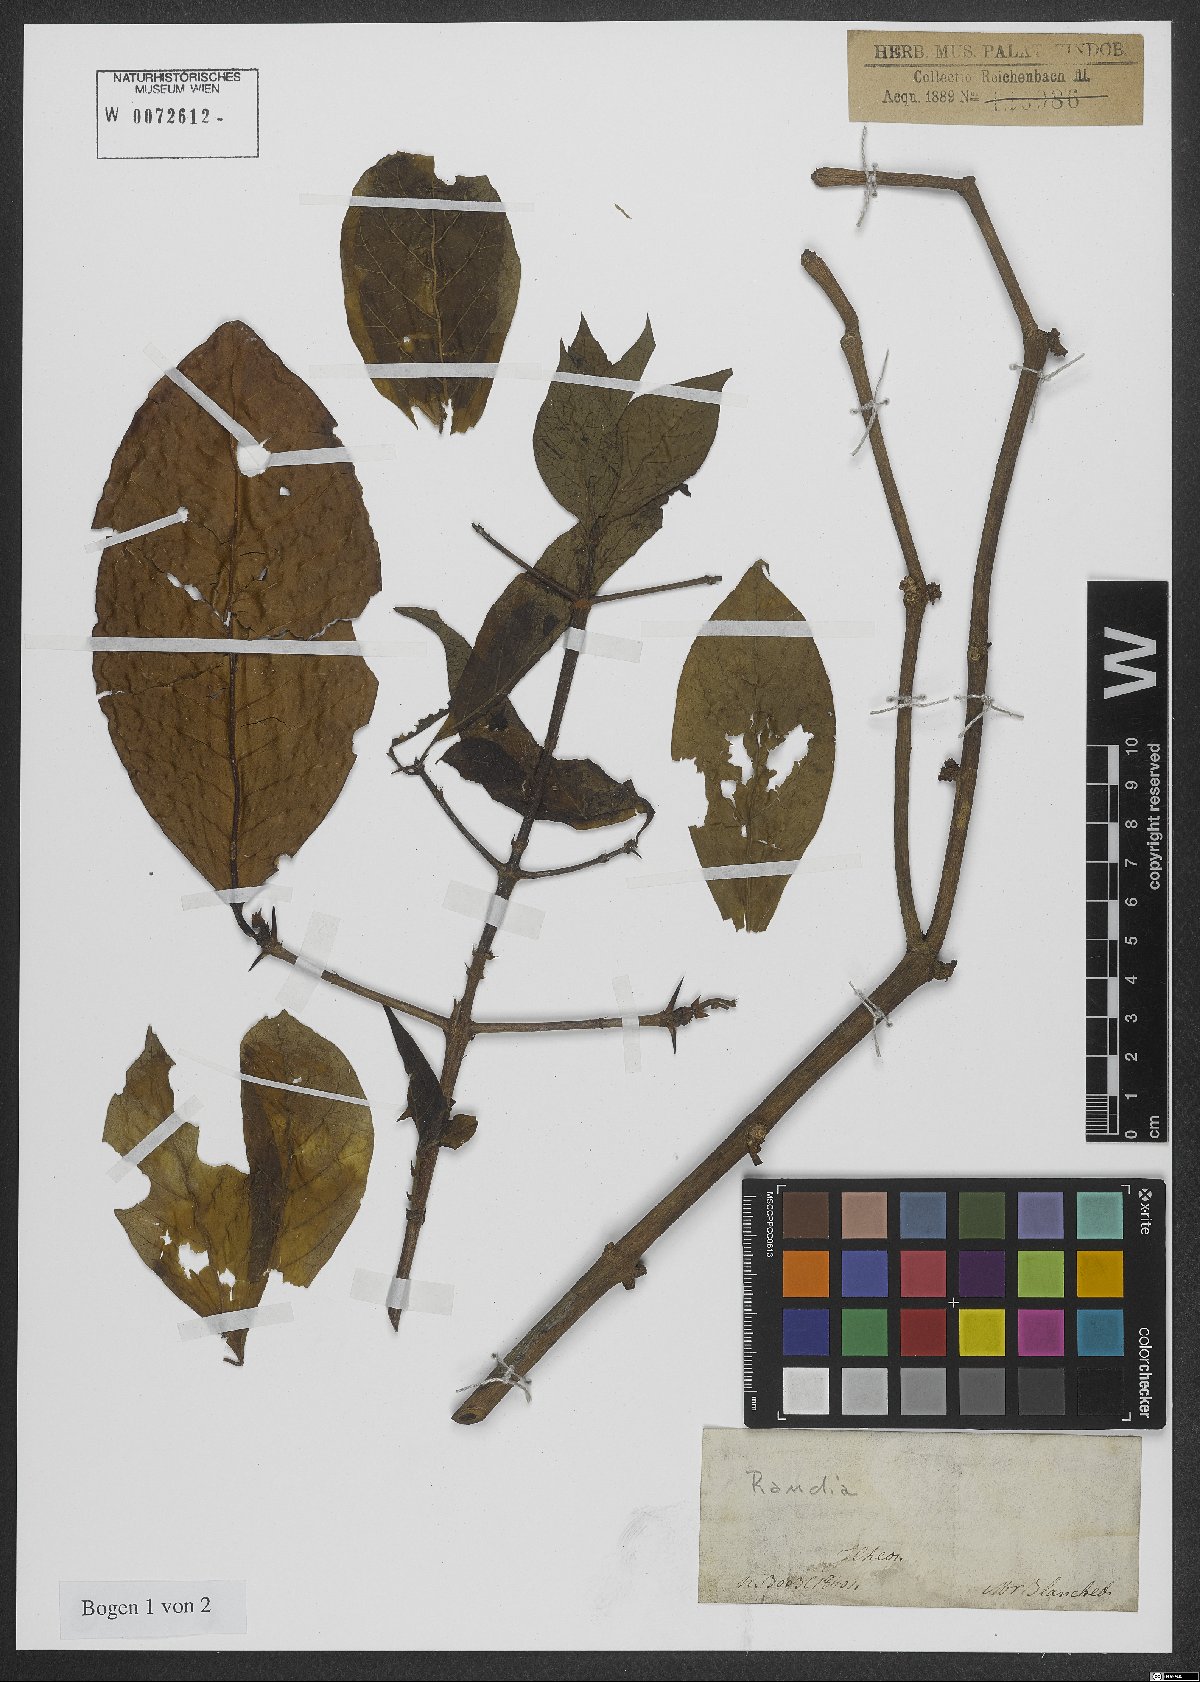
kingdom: Plantae
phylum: Tracheophyta
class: Magnoliopsida
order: Gentianales
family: Rubiaceae
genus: Randia
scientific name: Randia
